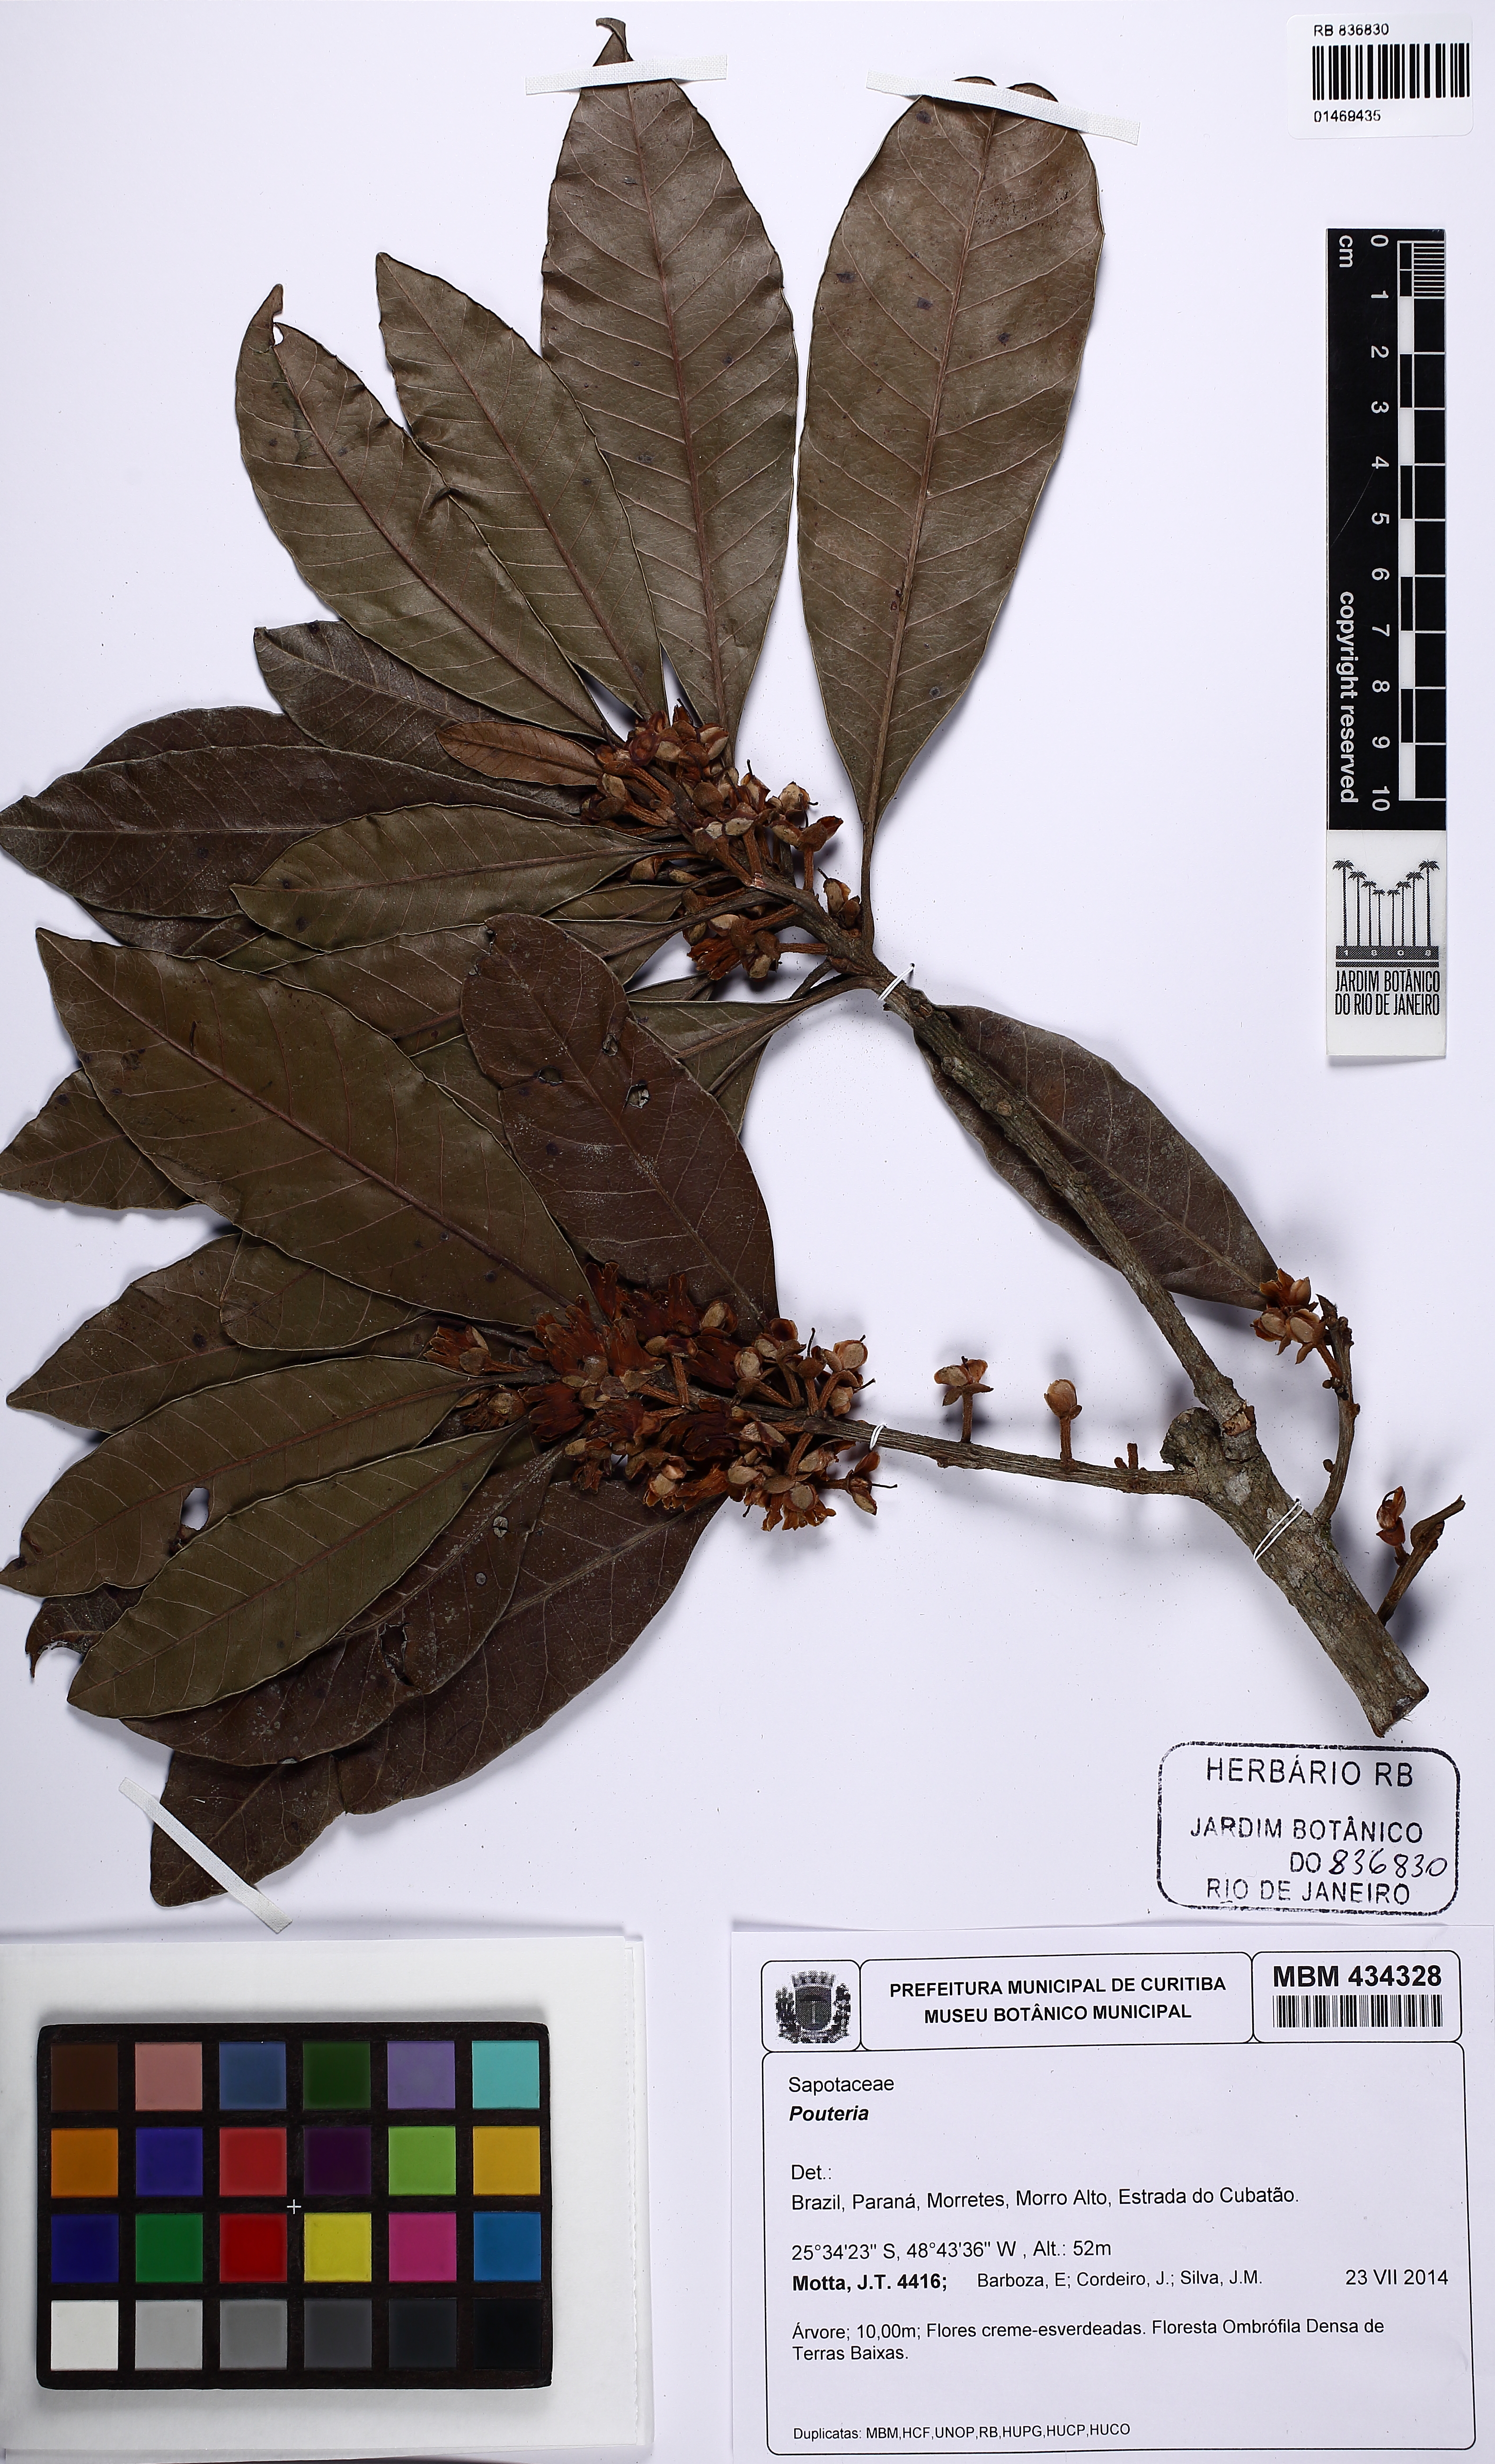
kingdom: Plantae
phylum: Tracheophyta
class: Magnoliopsida
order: Ericales
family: Sapotaceae
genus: Pouteria
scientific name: Pouteria venosa
